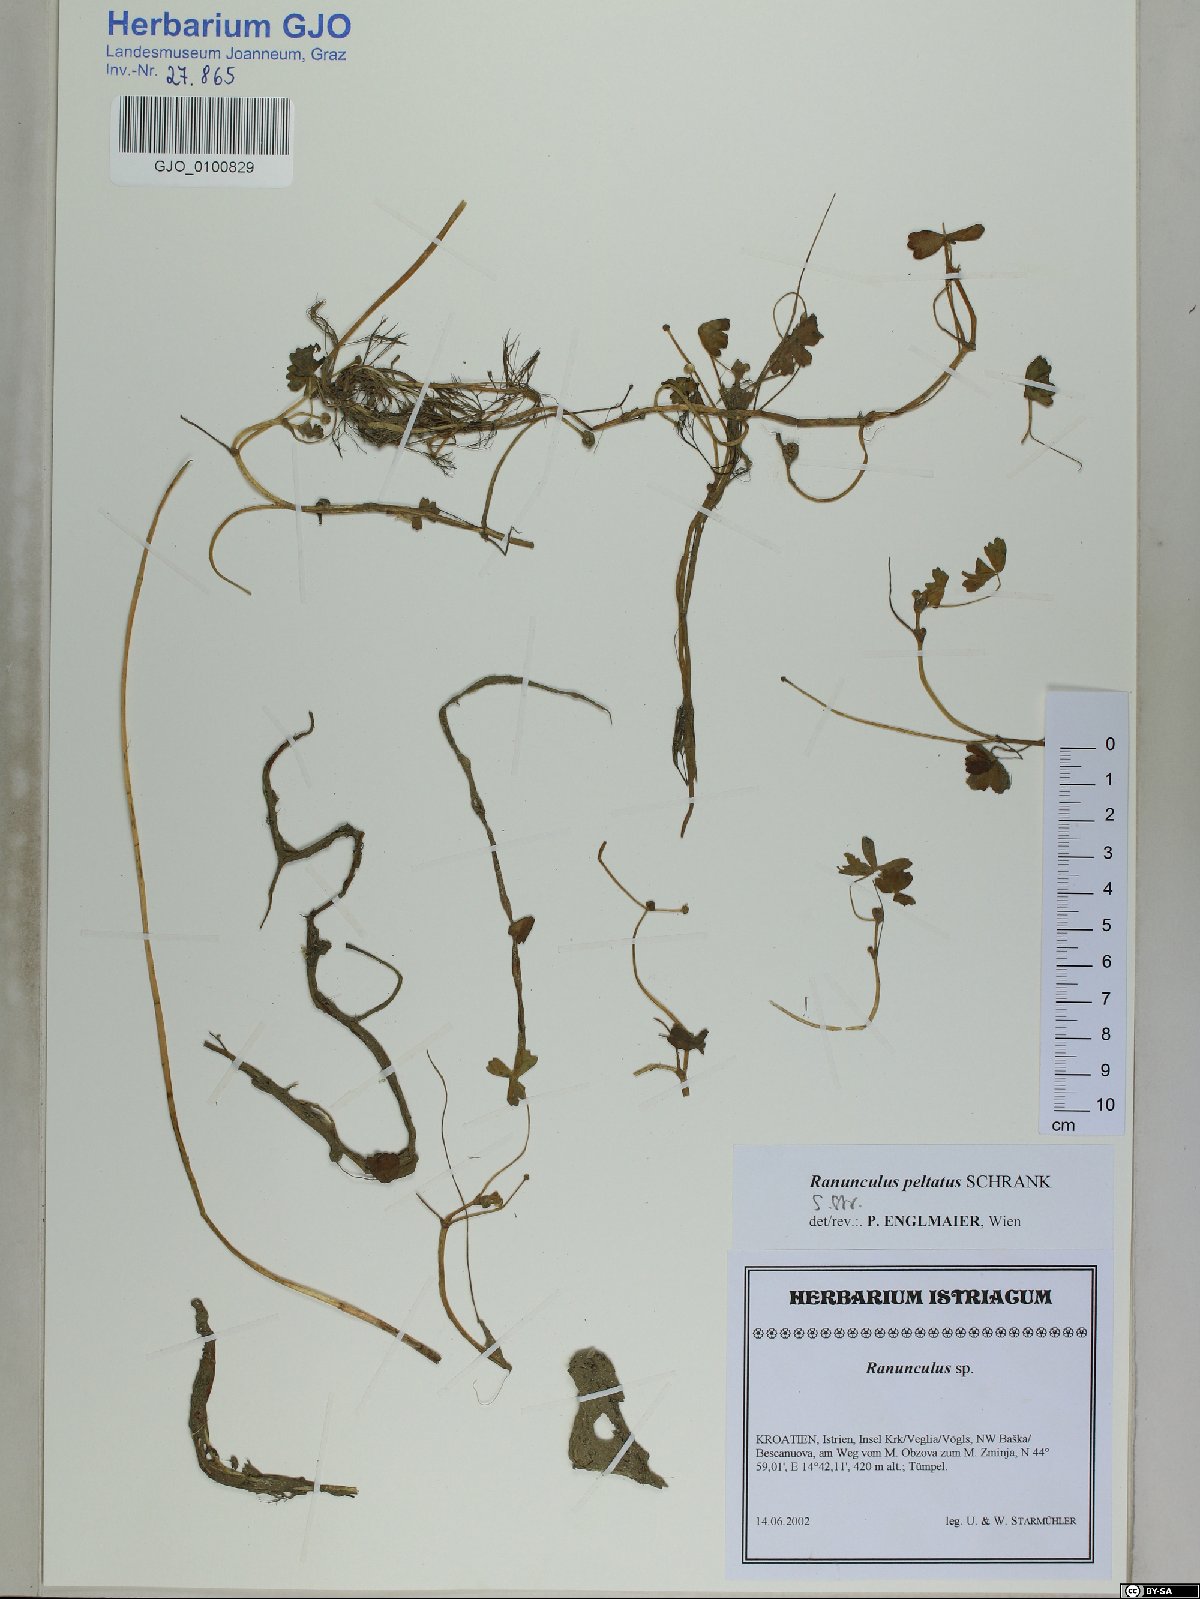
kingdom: Plantae
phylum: Tracheophyta
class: Magnoliopsida
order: Ranunculales
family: Ranunculaceae
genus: Ranunculus
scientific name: Ranunculus peltatus
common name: Pond water-crowfoot
